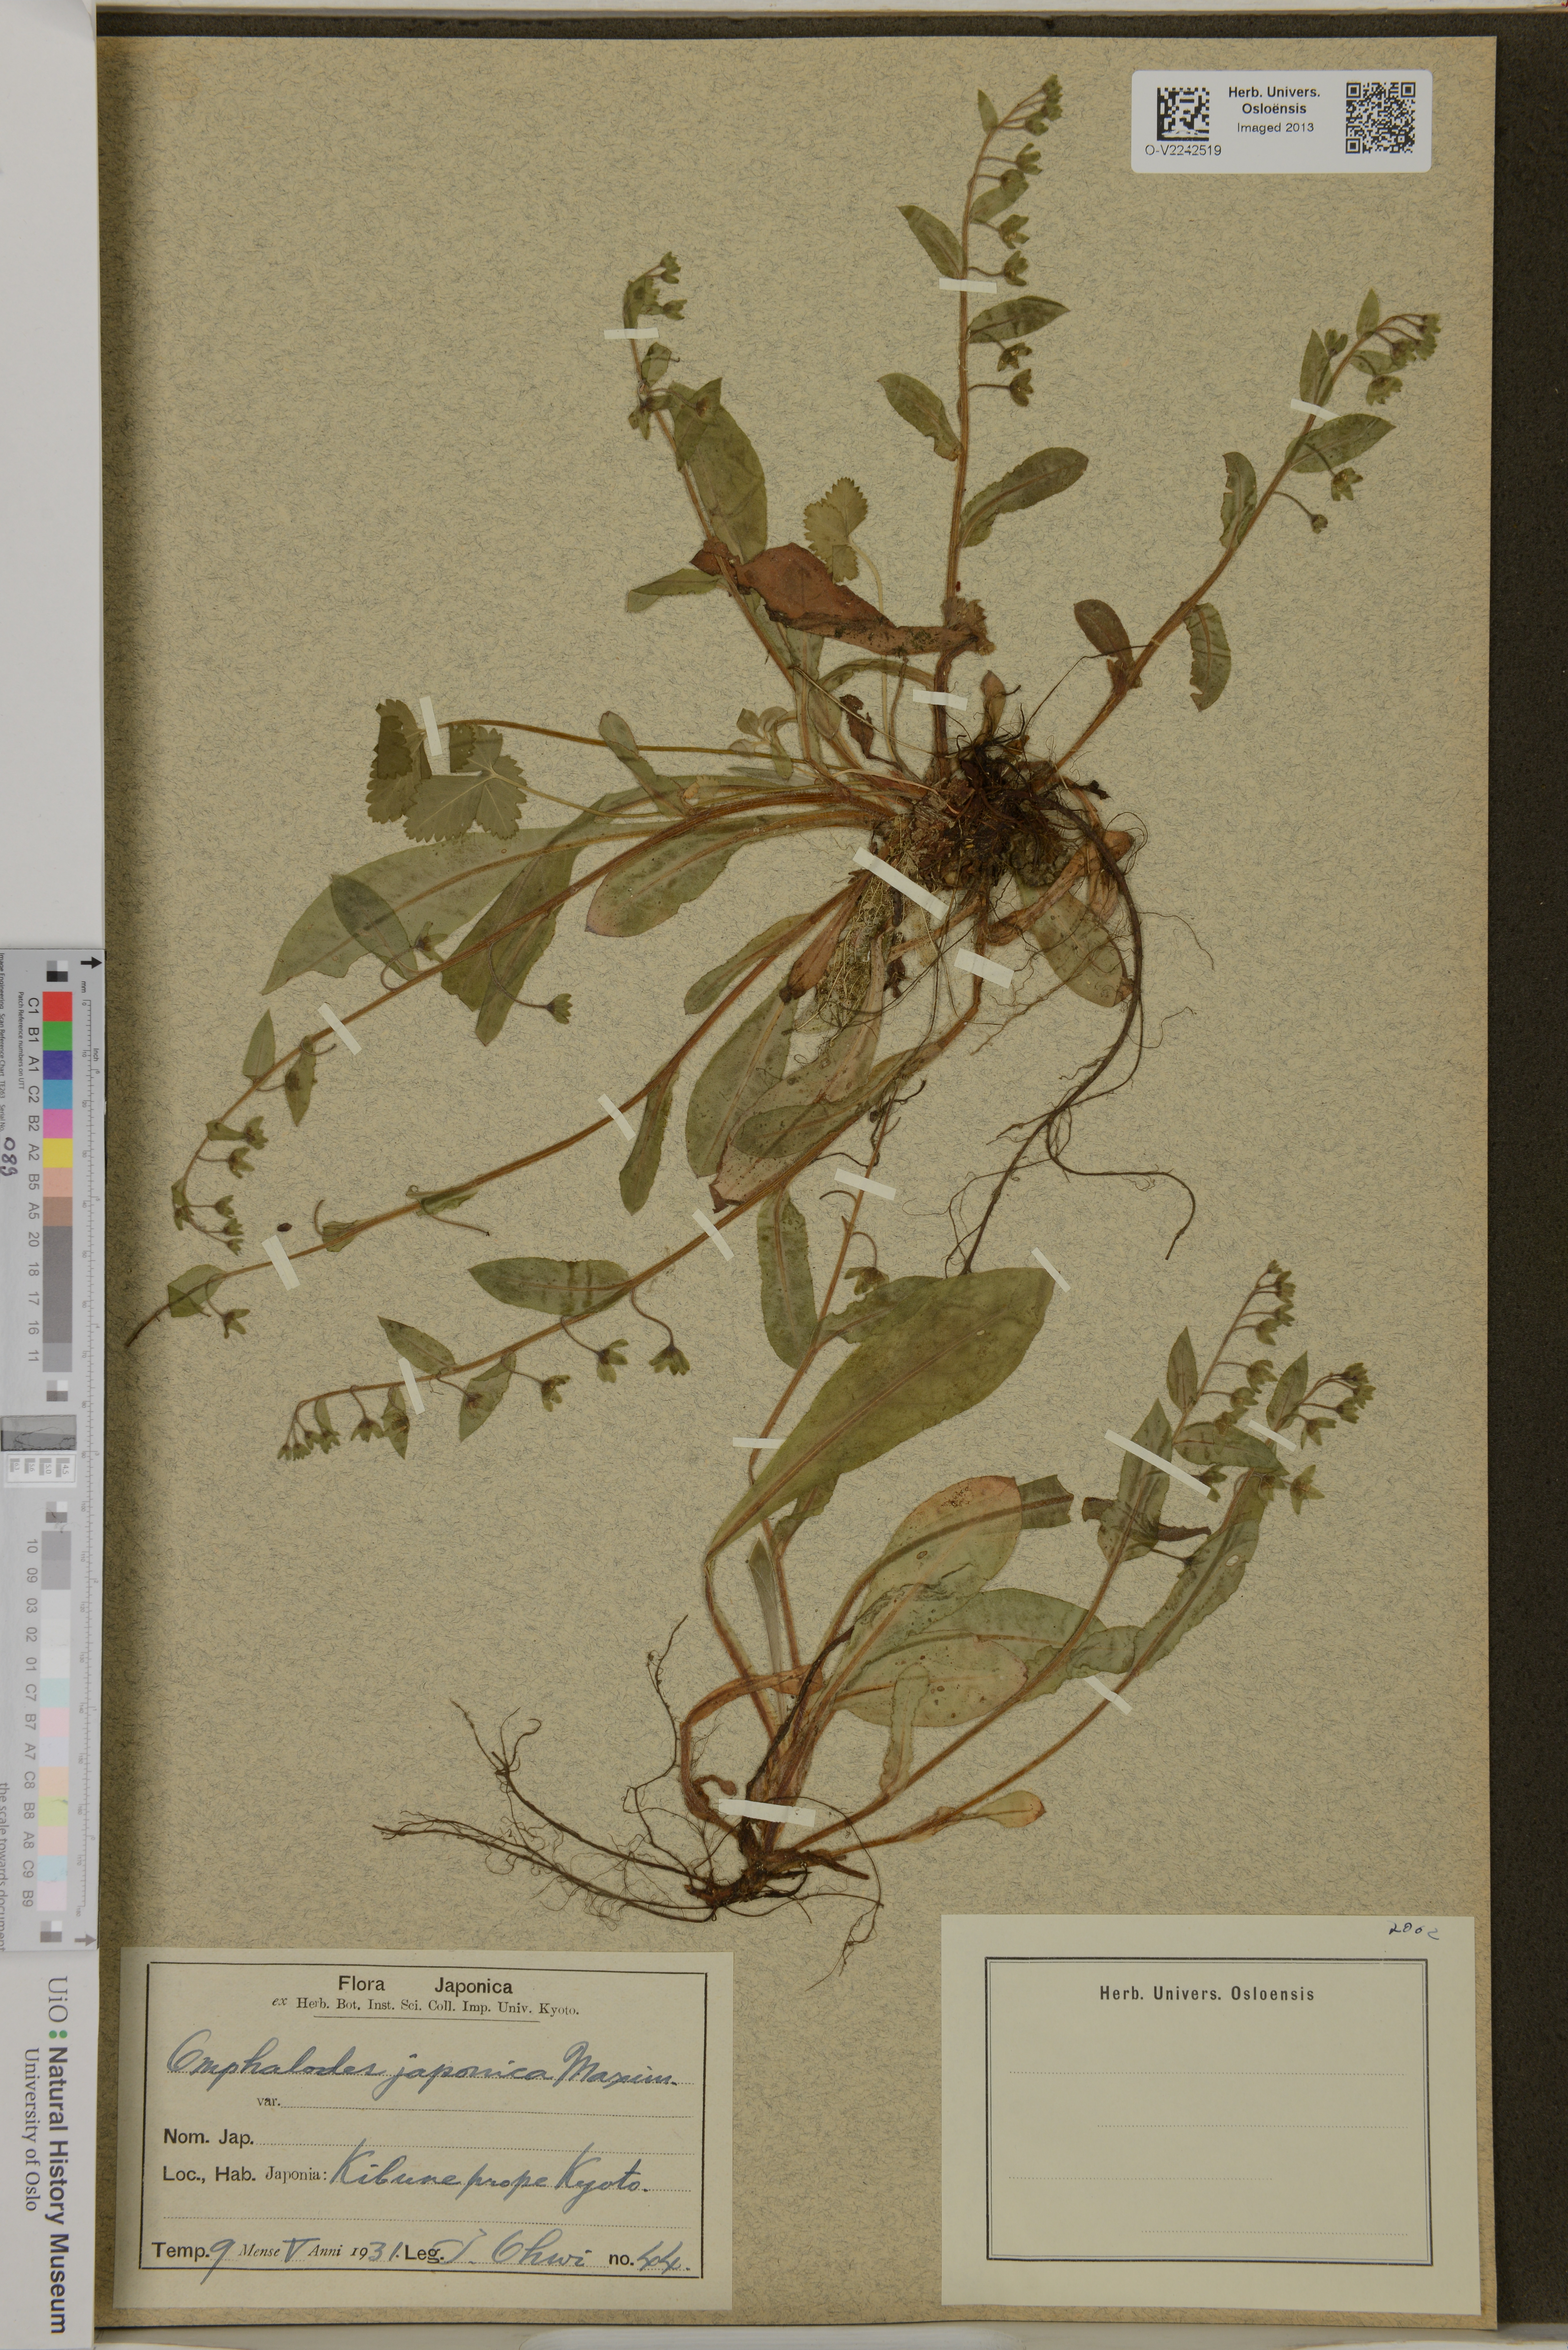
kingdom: Plantae
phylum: Tracheophyta
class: Magnoliopsida
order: Boraginales
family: Boraginaceae
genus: Nihon
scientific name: Nihon japonicum
